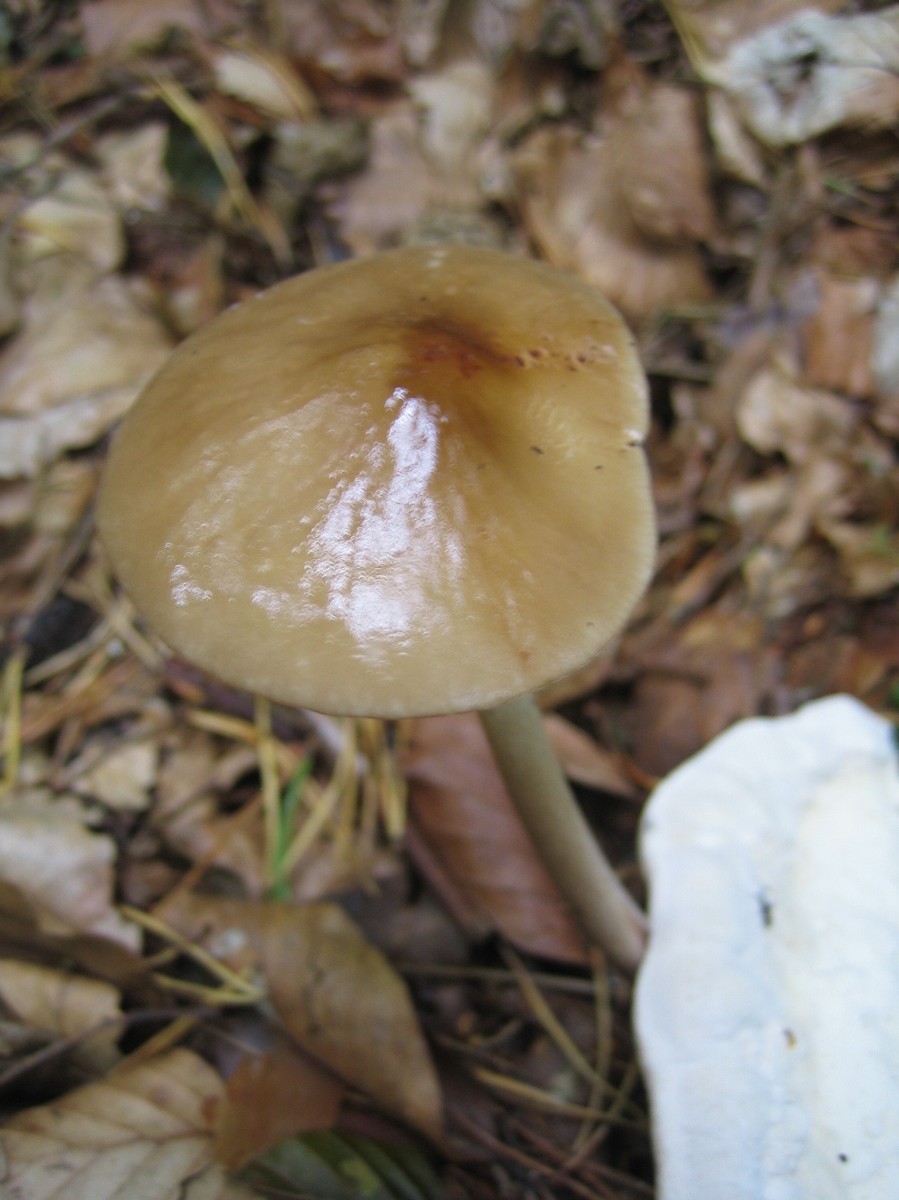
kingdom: Fungi
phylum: Basidiomycota
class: Agaricomycetes
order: Agaricales
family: Physalacriaceae
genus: Hymenopellis
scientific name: Hymenopellis radicata
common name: almindelig pælerodshat
